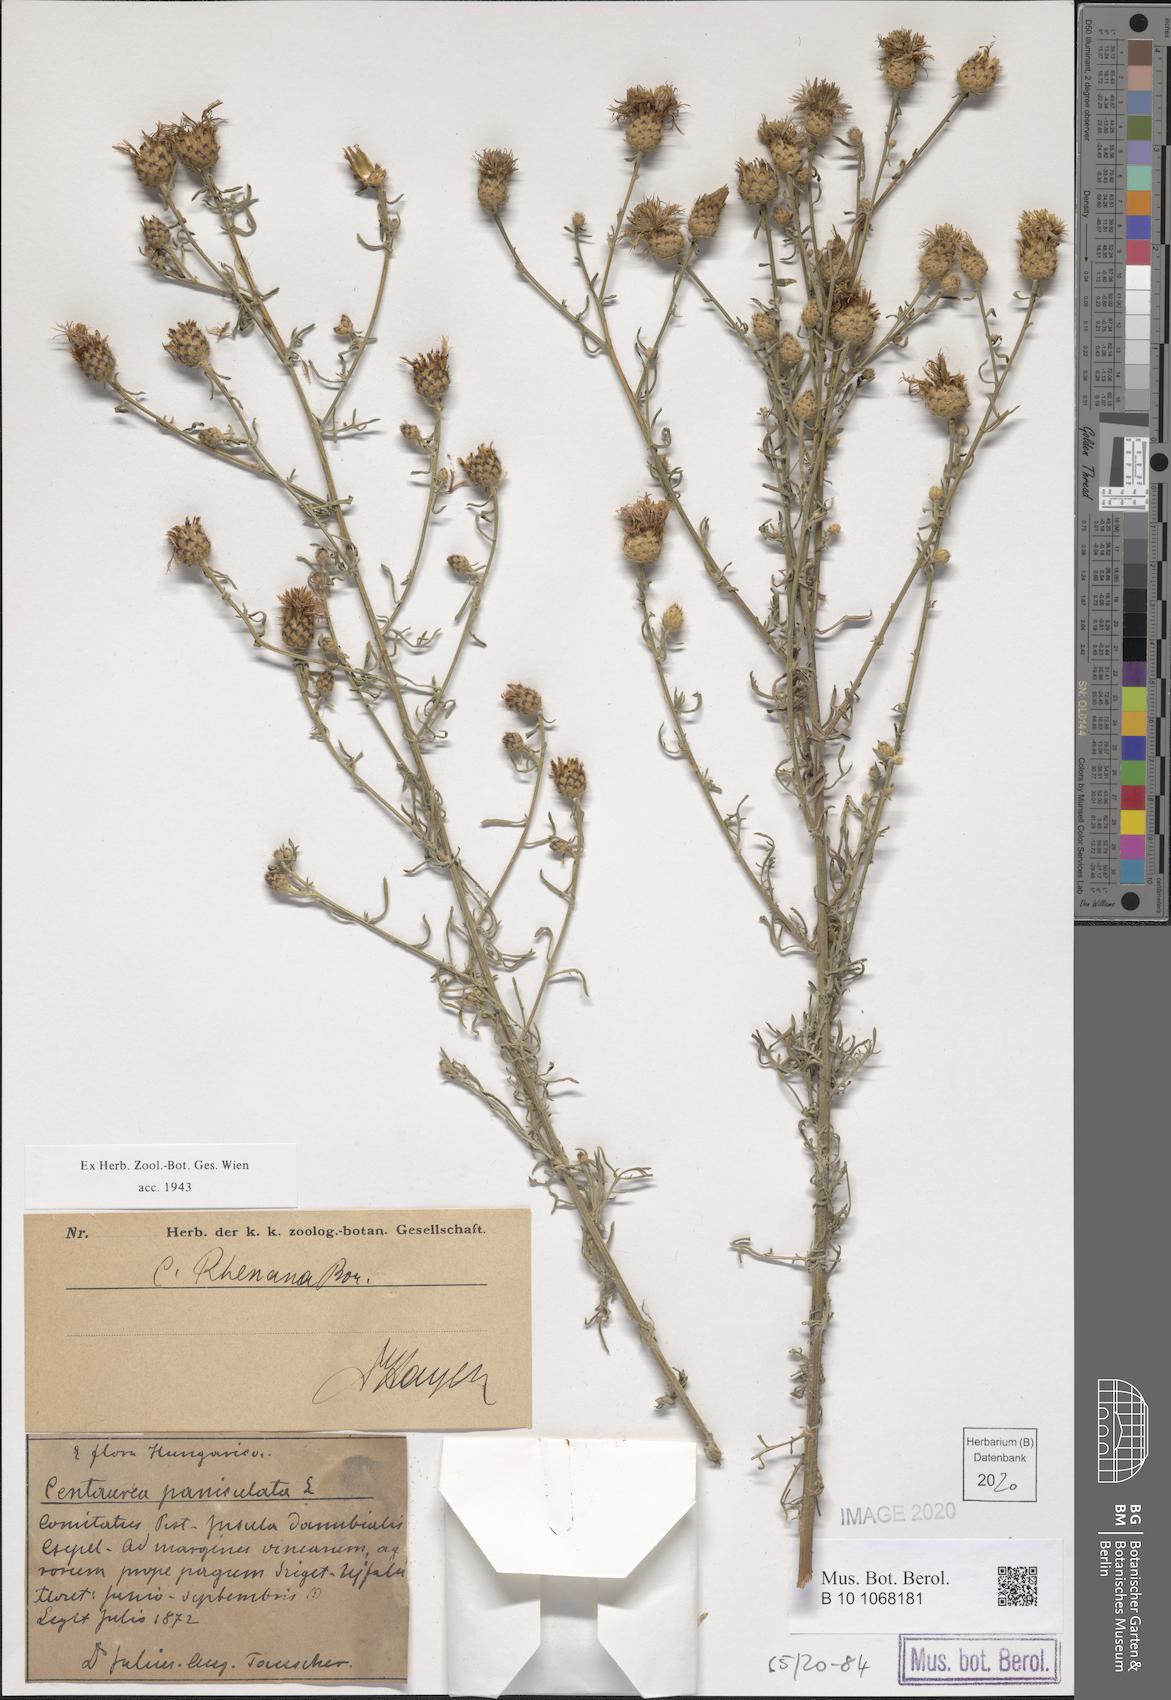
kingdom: Plantae
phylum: Tracheophyta
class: Magnoliopsida
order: Asterales
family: Asteraceae
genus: Centaurea
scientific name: Centaurea stoebe
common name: Spotted knapweed
